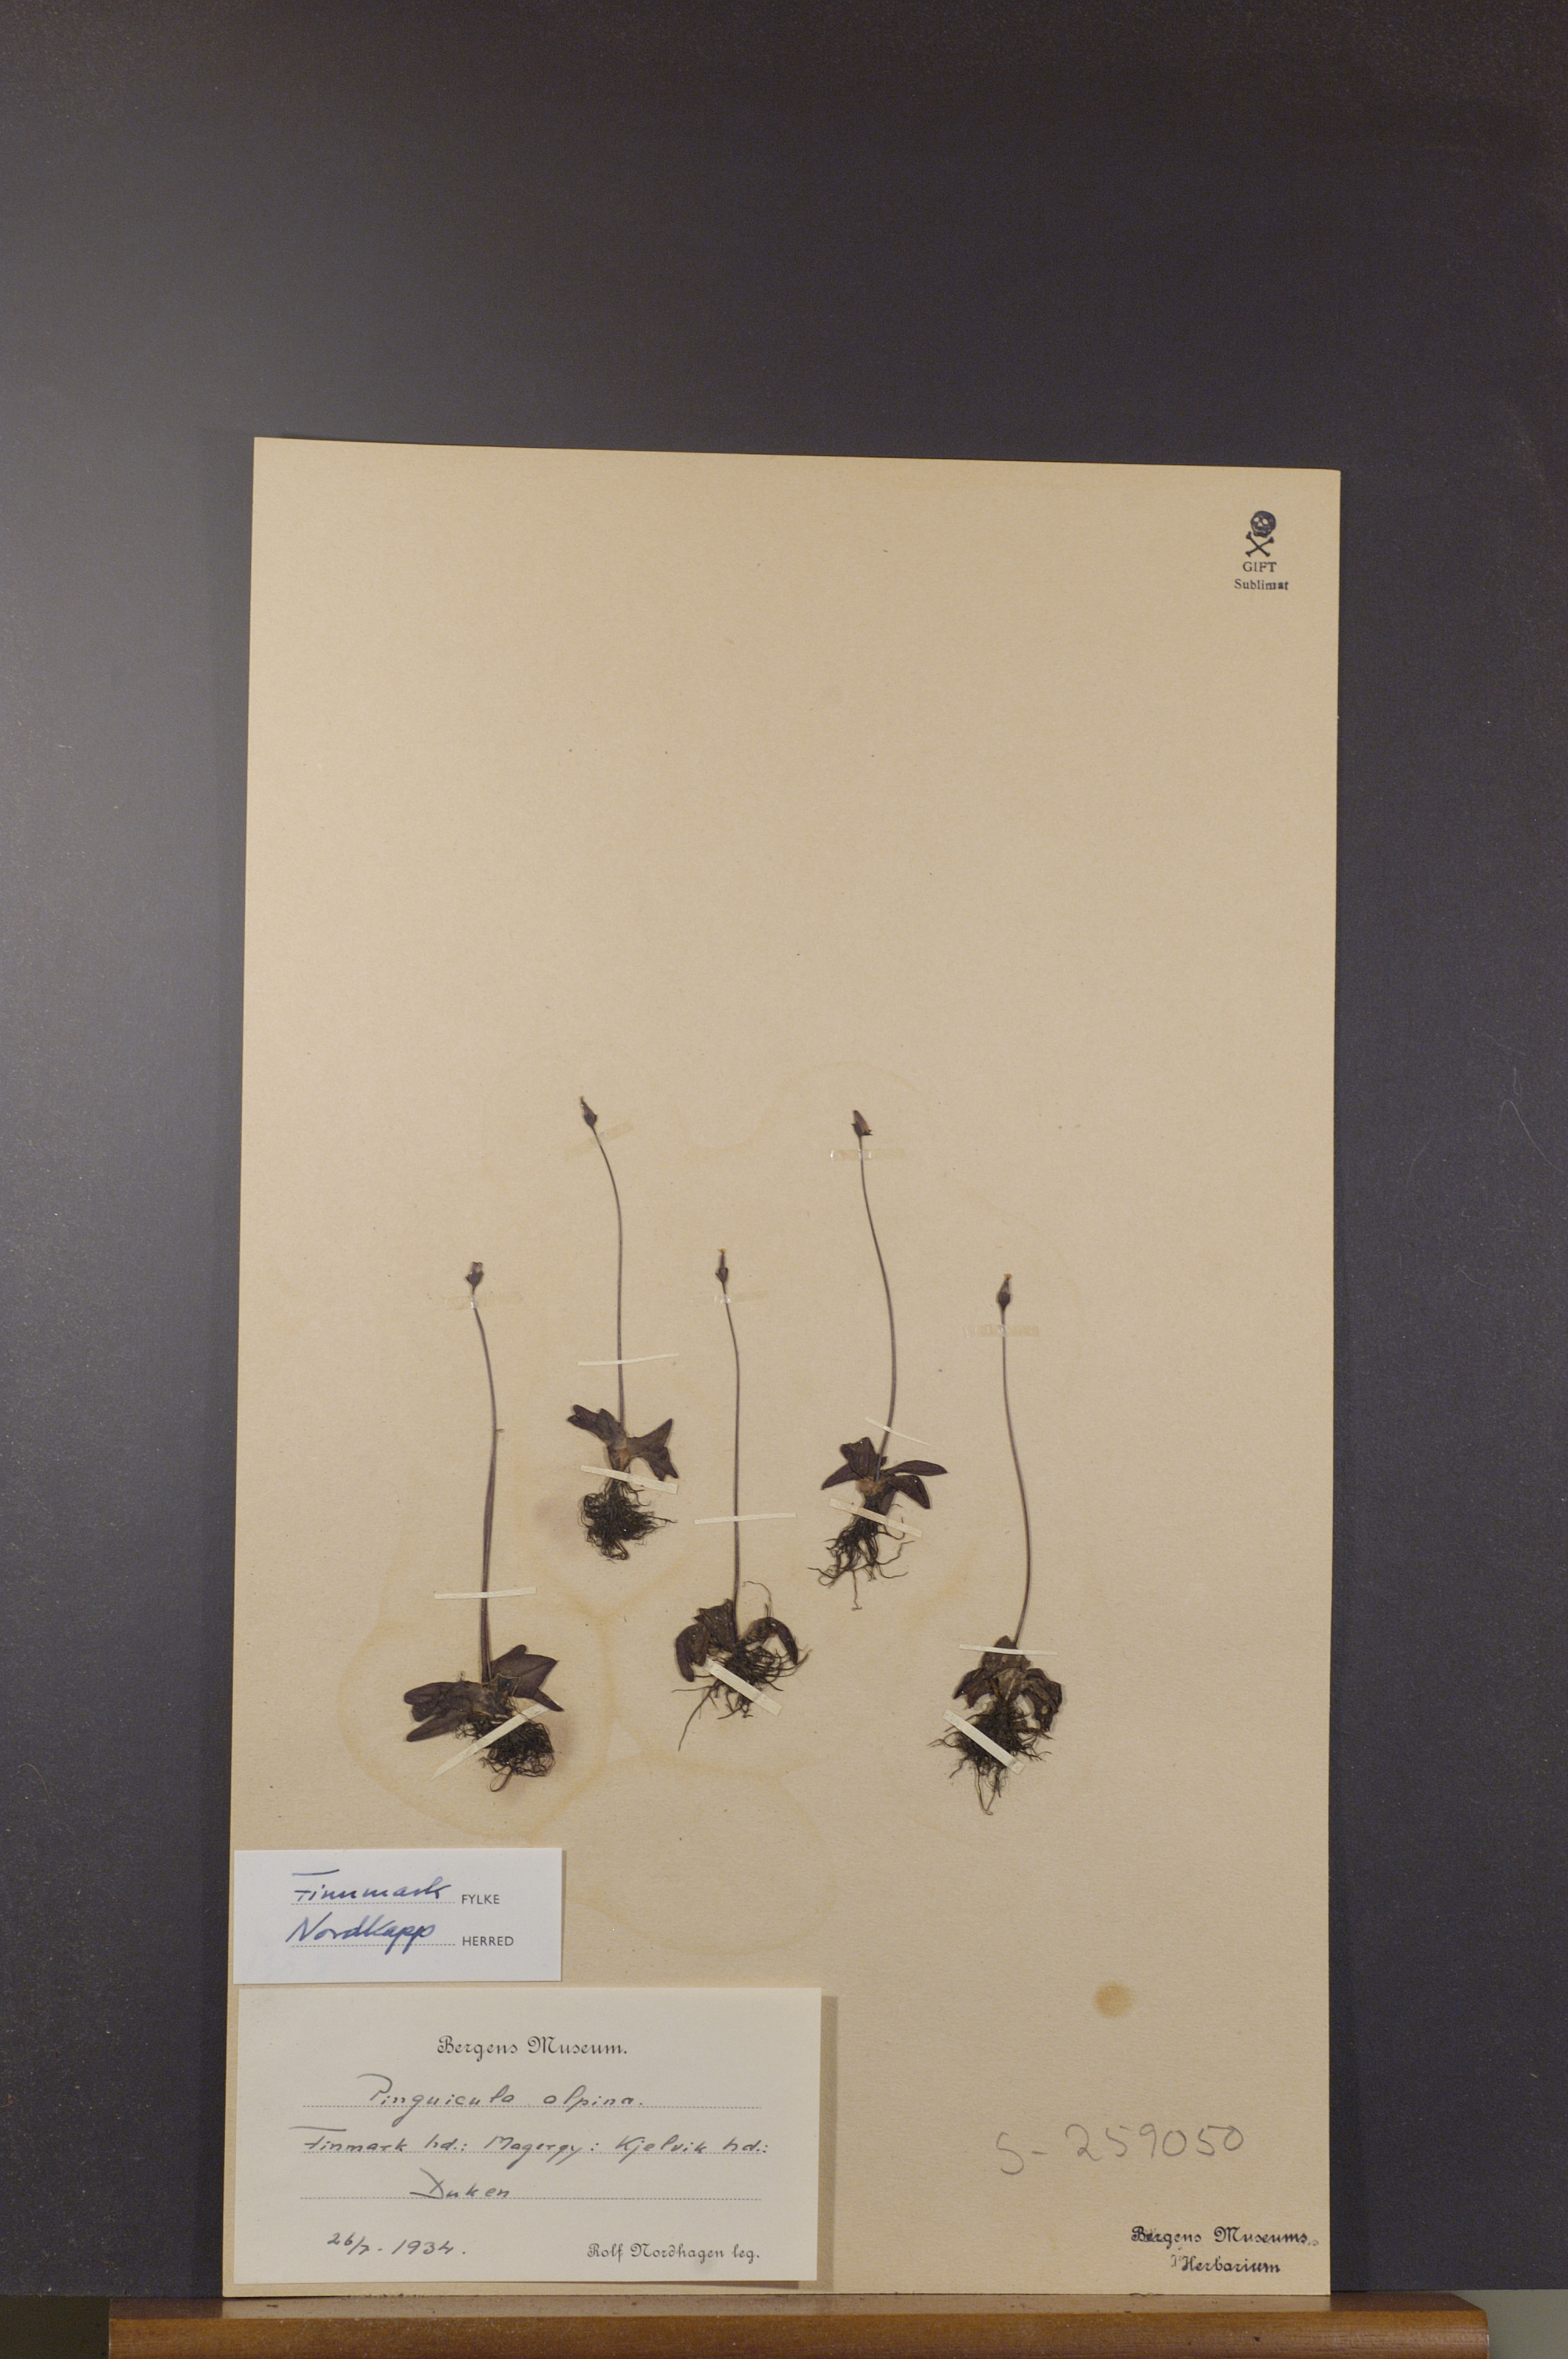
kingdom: Plantae
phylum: Tracheophyta
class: Magnoliopsida
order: Lamiales
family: Lentibulariaceae
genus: Pinguicula
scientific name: Pinguicula alpina
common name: Alpine butterwort
